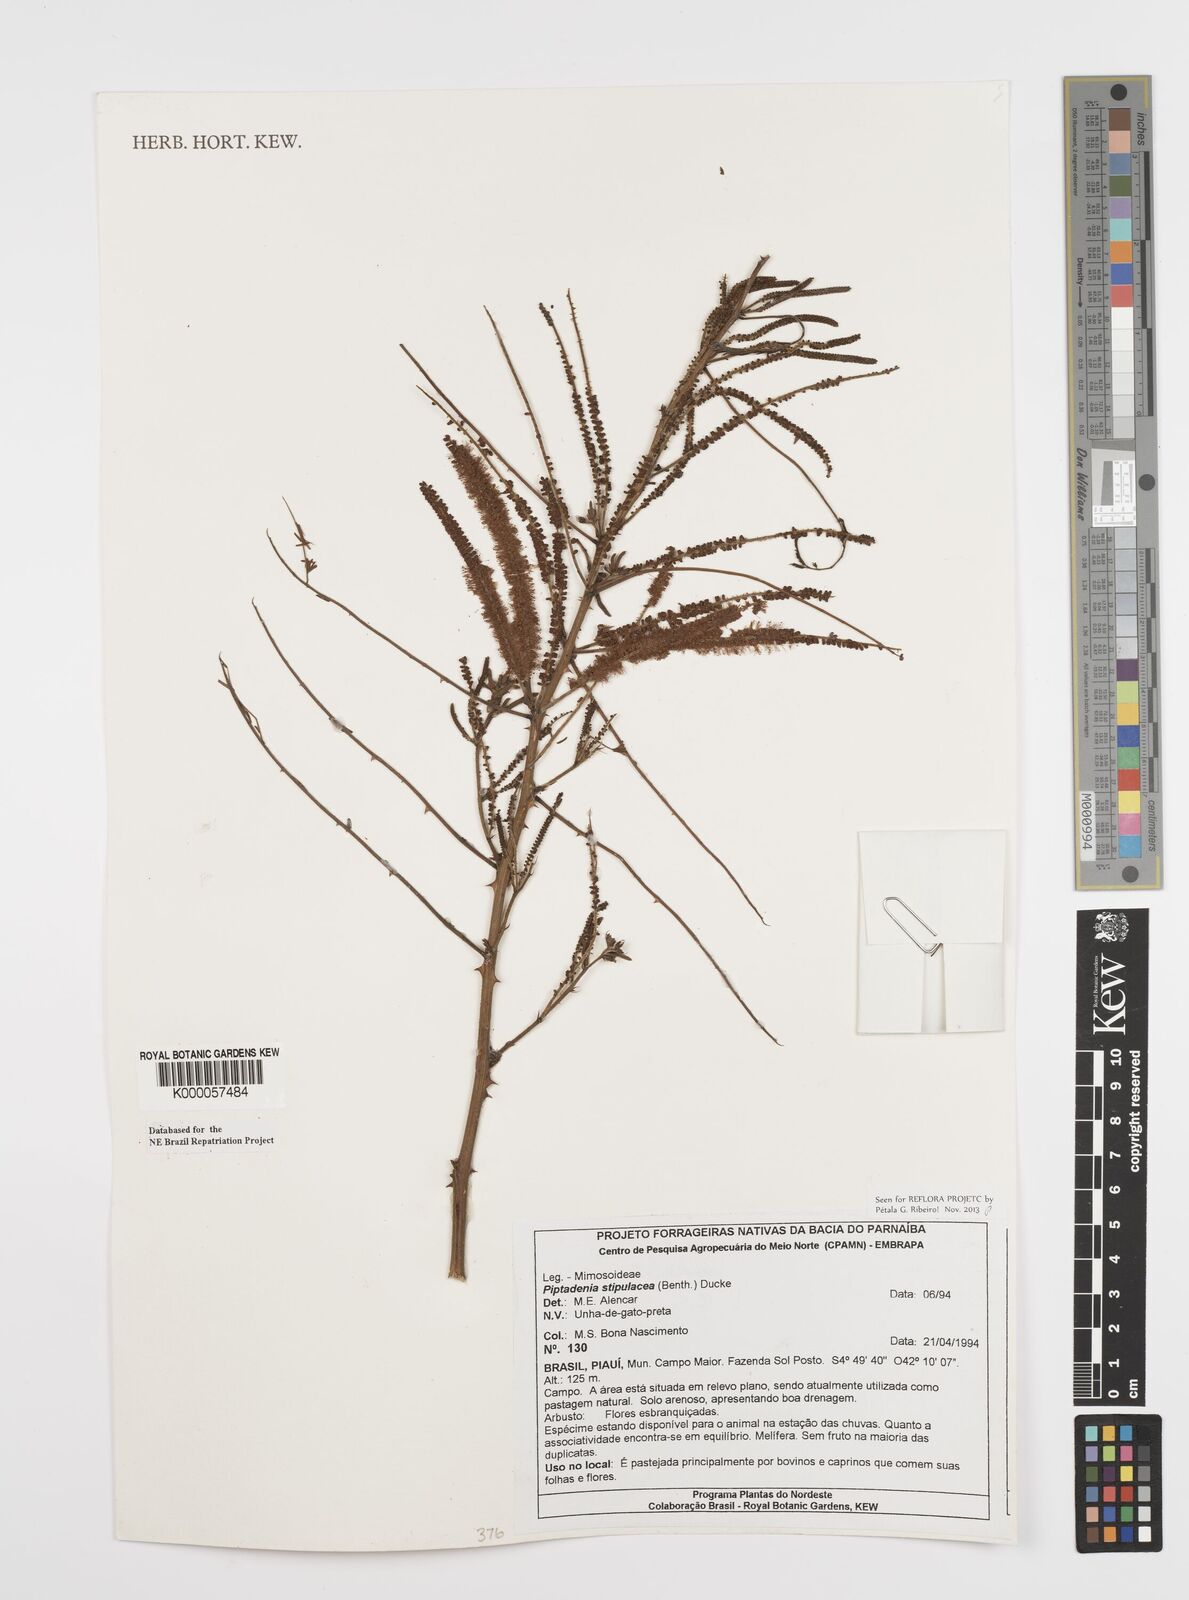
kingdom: Plantae
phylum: Tracheophyta
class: Magnoliopsida
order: Fabales
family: Fabaceae
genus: Piptadenia
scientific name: Piptadenia retusa
